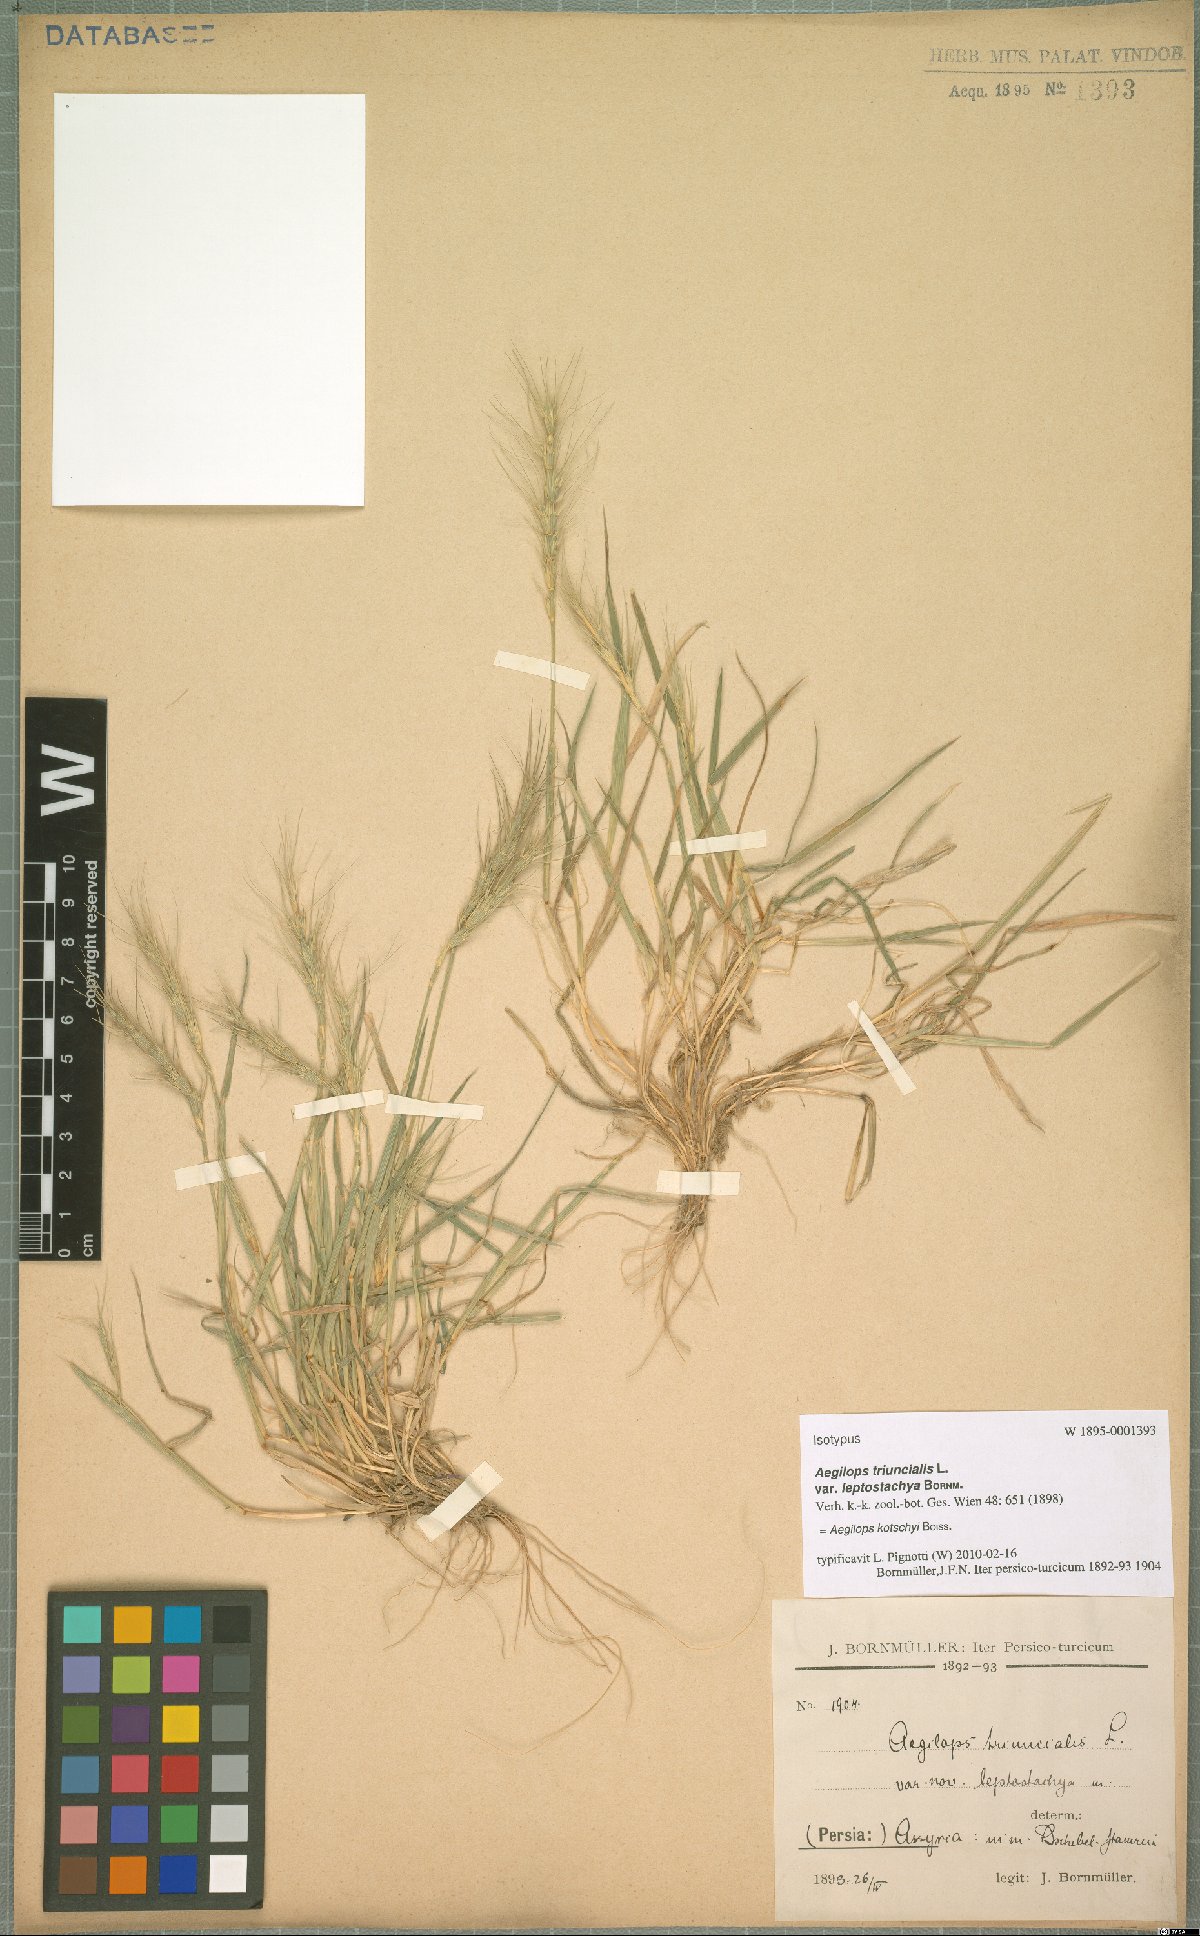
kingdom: Plantae
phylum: Tracheophyta
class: Liliopsida
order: Poales
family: Poaceae
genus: Aegilops
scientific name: Aegilops kotschyi
